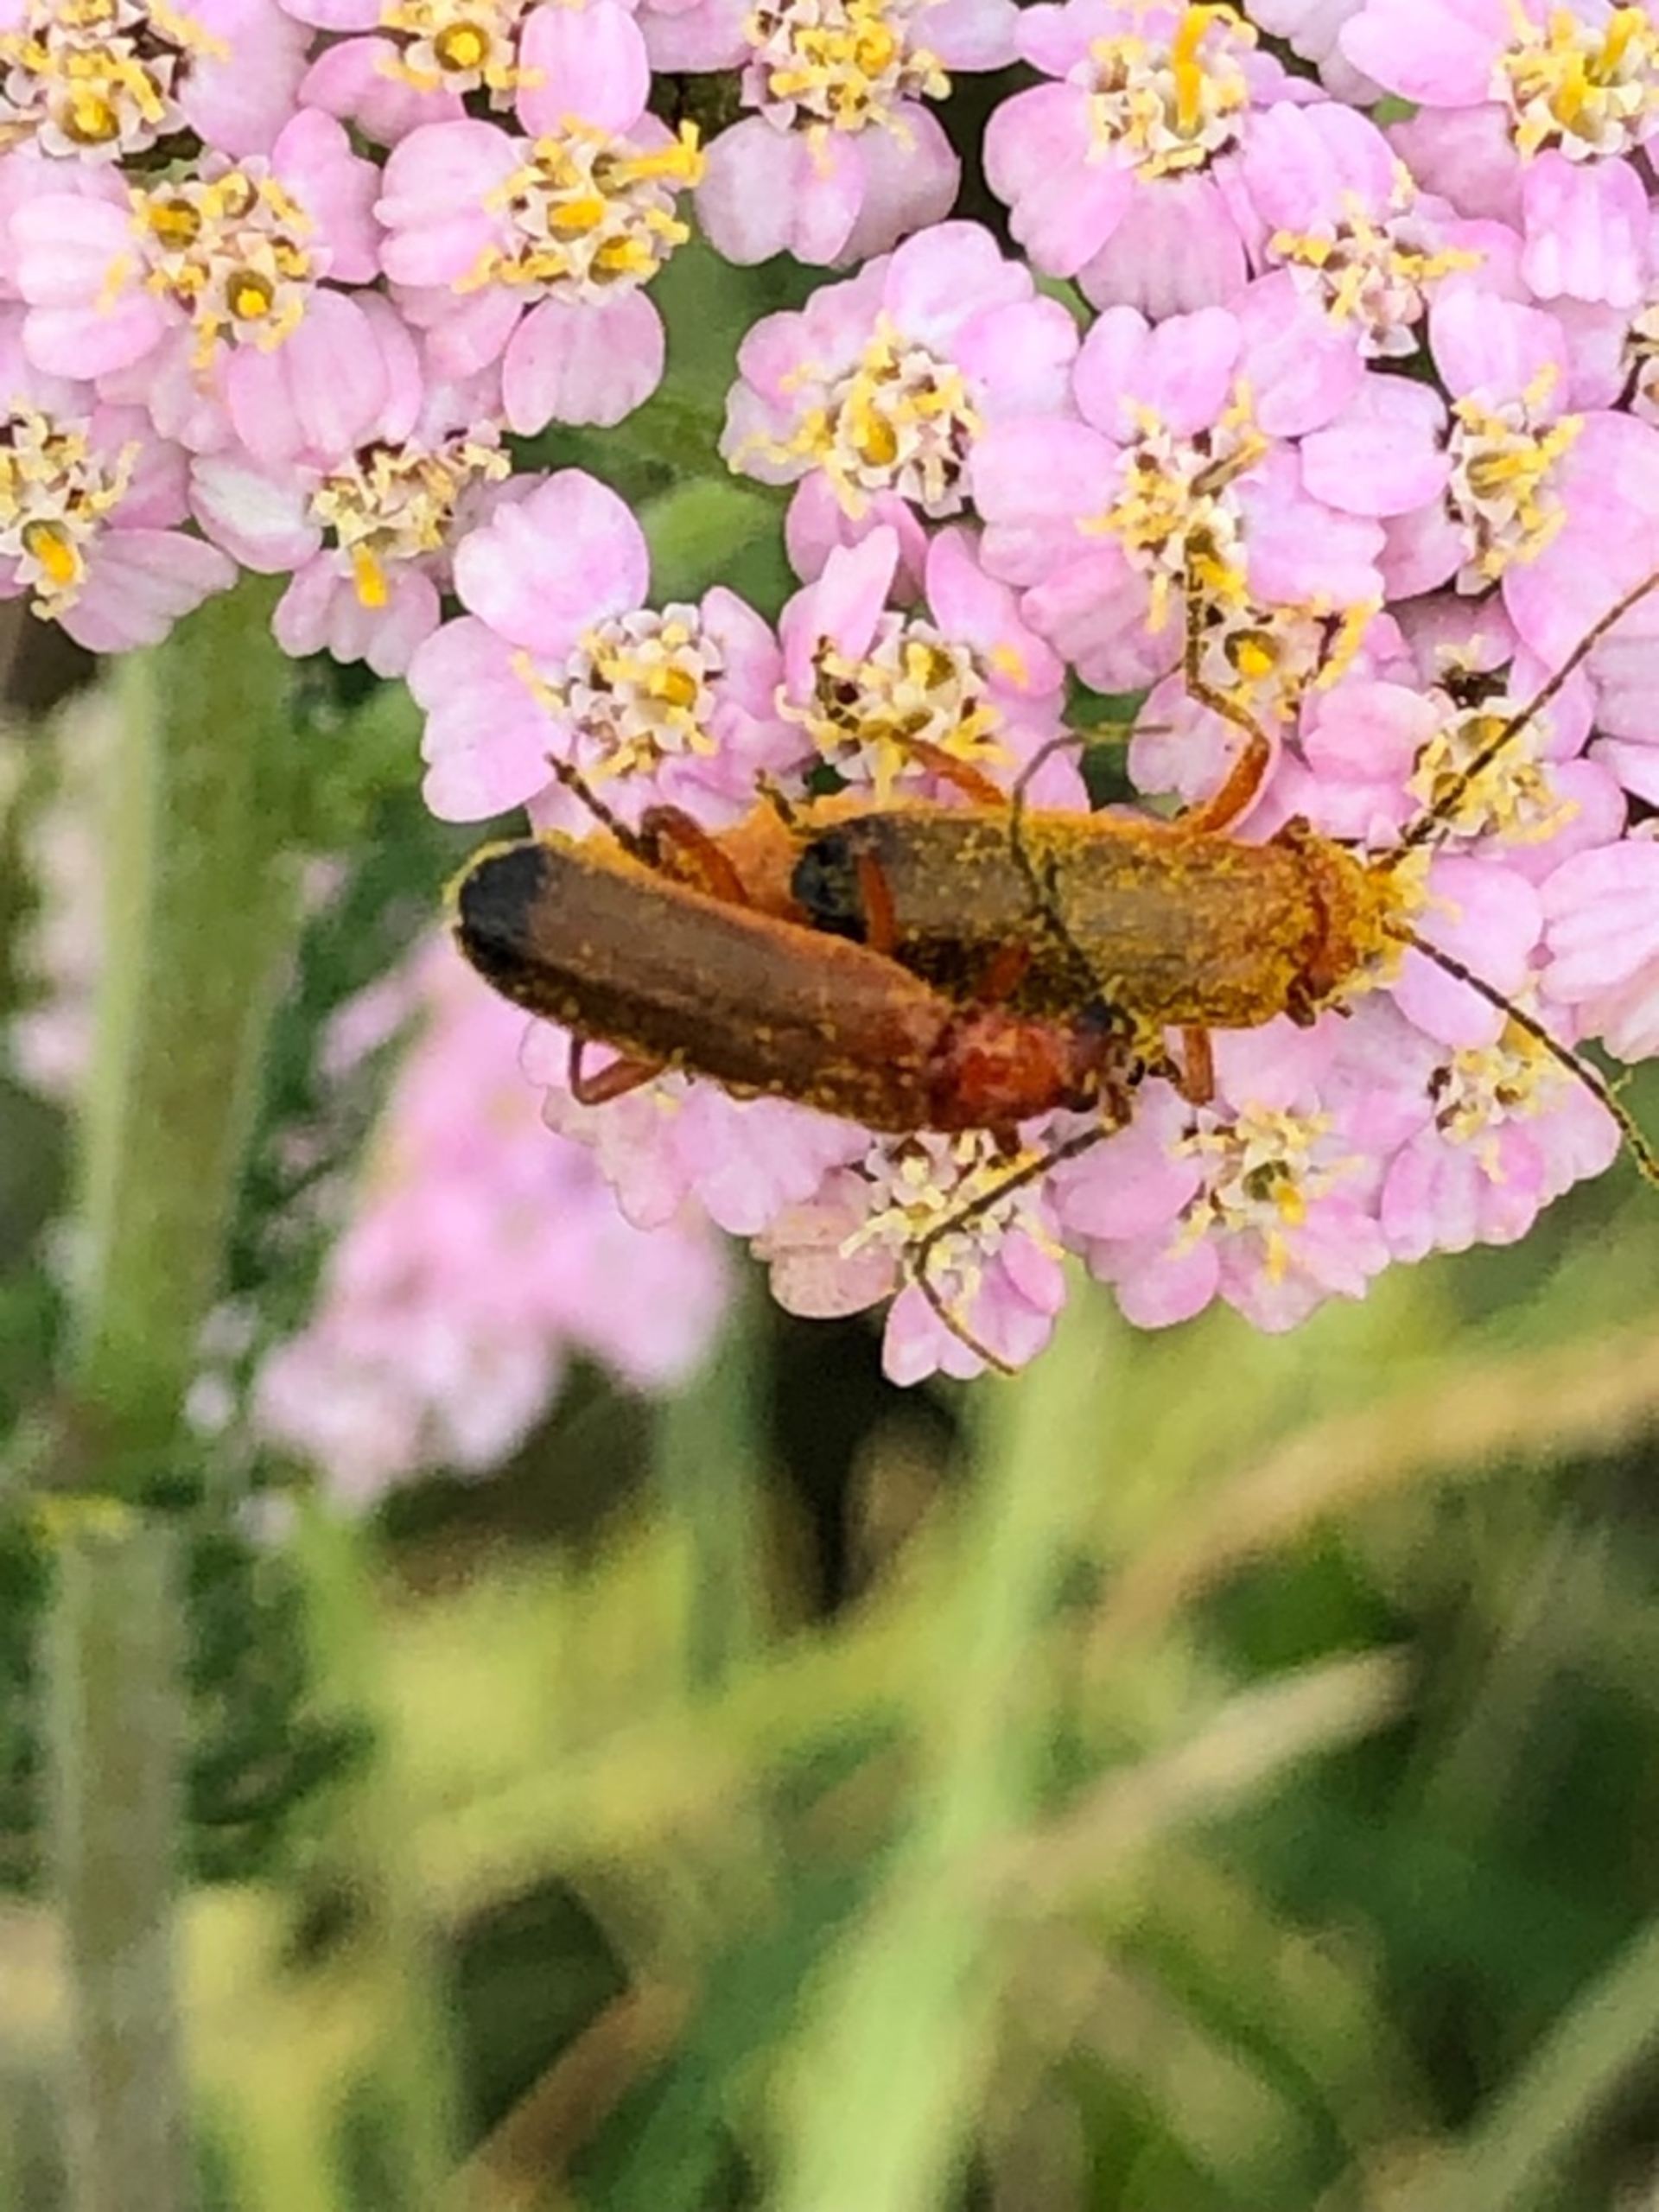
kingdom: Animalia
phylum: Arthropoda
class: Insecta
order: Coleoptera
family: Cantharidae
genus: Rhagonycha
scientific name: Rhagonycha fulva
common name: Præstebille
